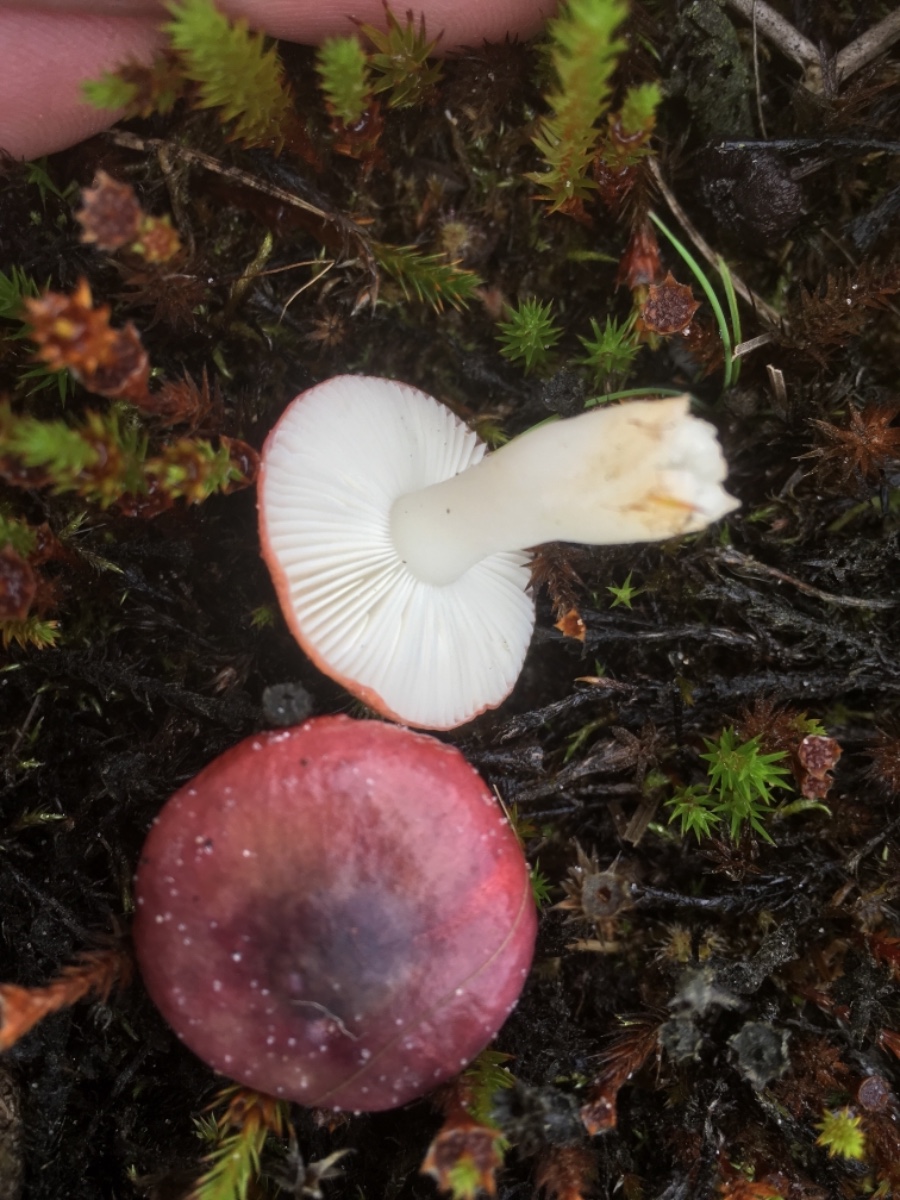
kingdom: Fungi
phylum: Basidiomycota
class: Agaricomycetes
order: Russulales
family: Russulaceae
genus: Russula
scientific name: Russula laccata
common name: klit-skørhat
